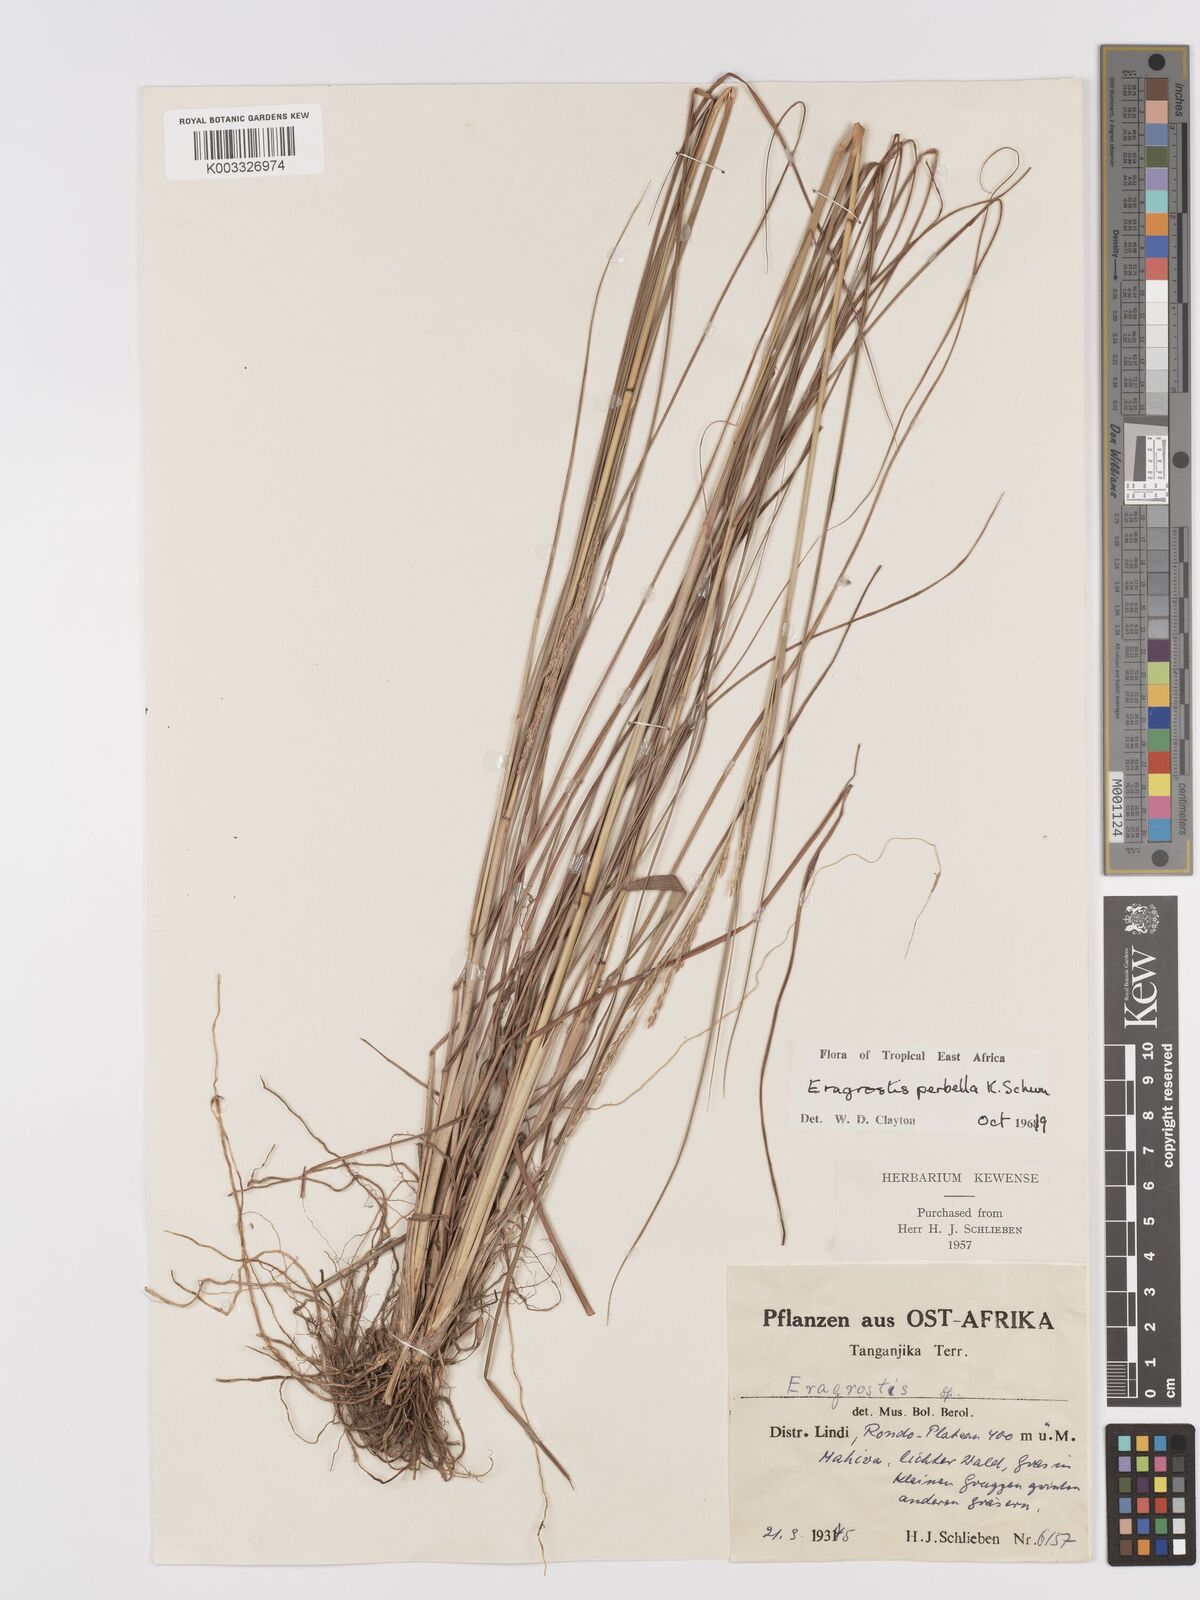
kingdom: Plantae
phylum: Tracheophyta
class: Liliopsida
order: Poales
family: Poaceae
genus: Eragrostis
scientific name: Eragrostis perbella
